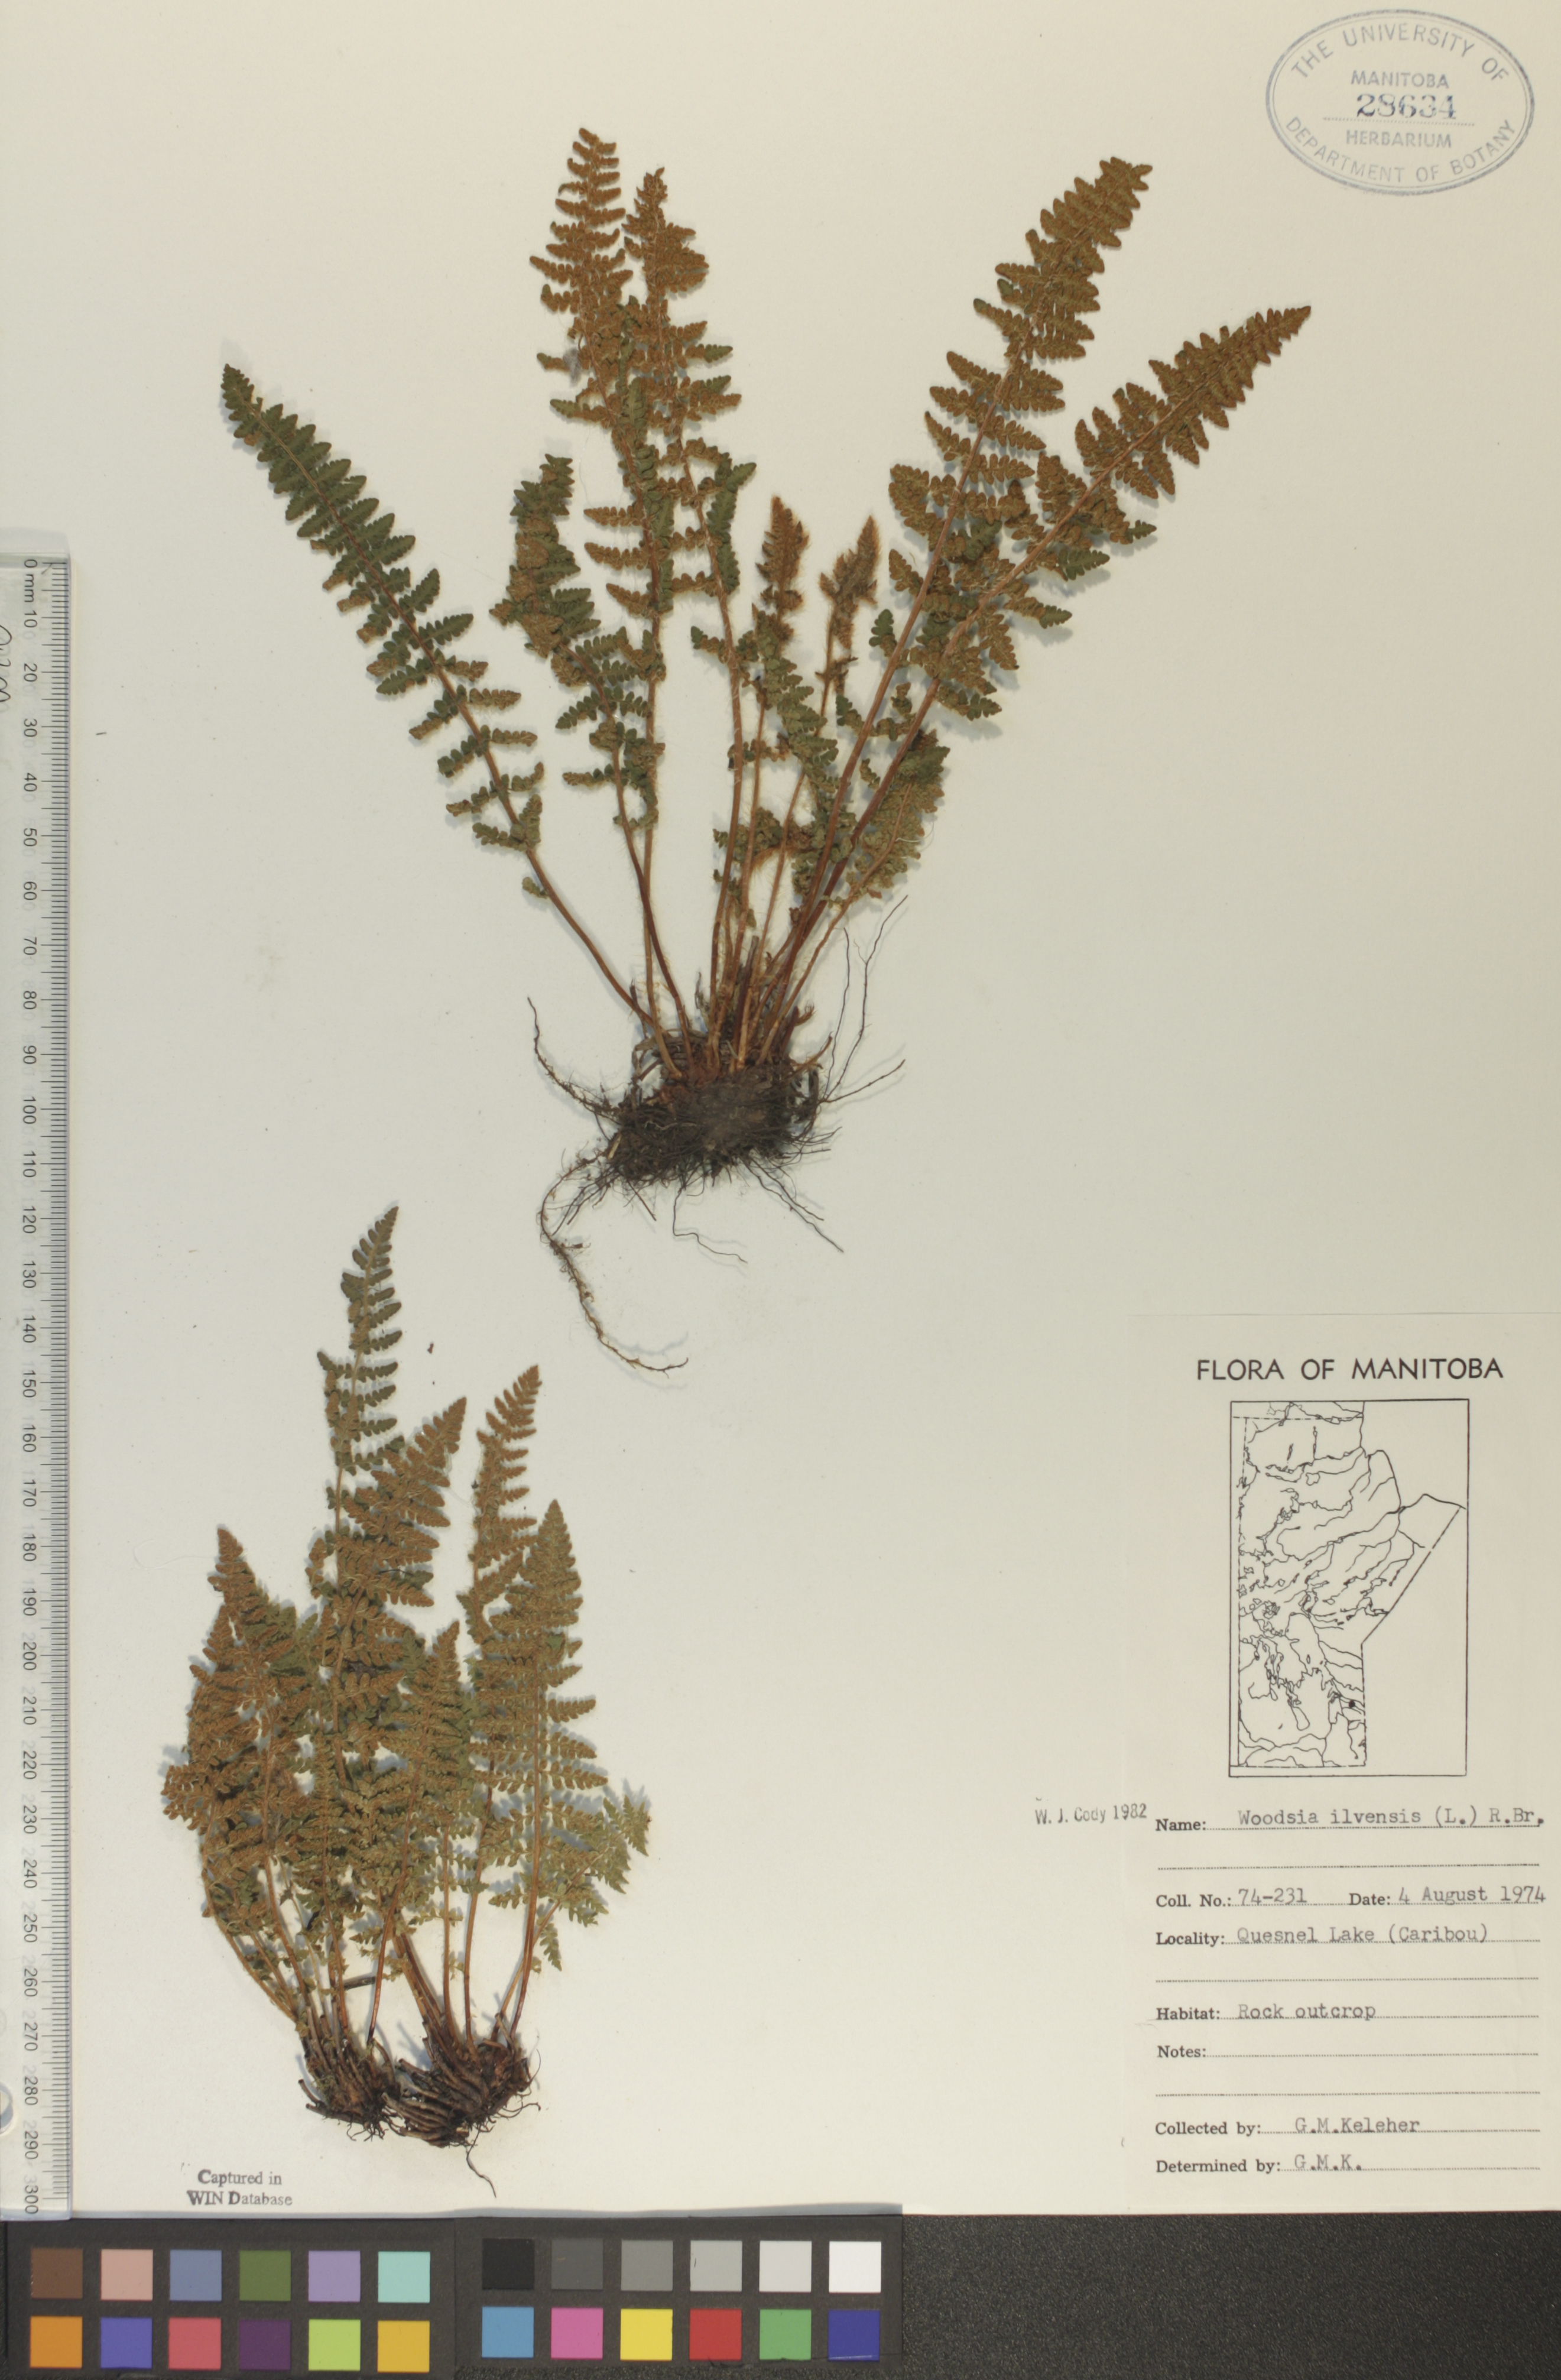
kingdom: Plantae
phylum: Tracheophyta
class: Polypodiopsida
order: Polypodiales
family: Woodsiaceae
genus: Woodsia
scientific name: Woodsia ilvensis
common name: Fragrant woodsia
